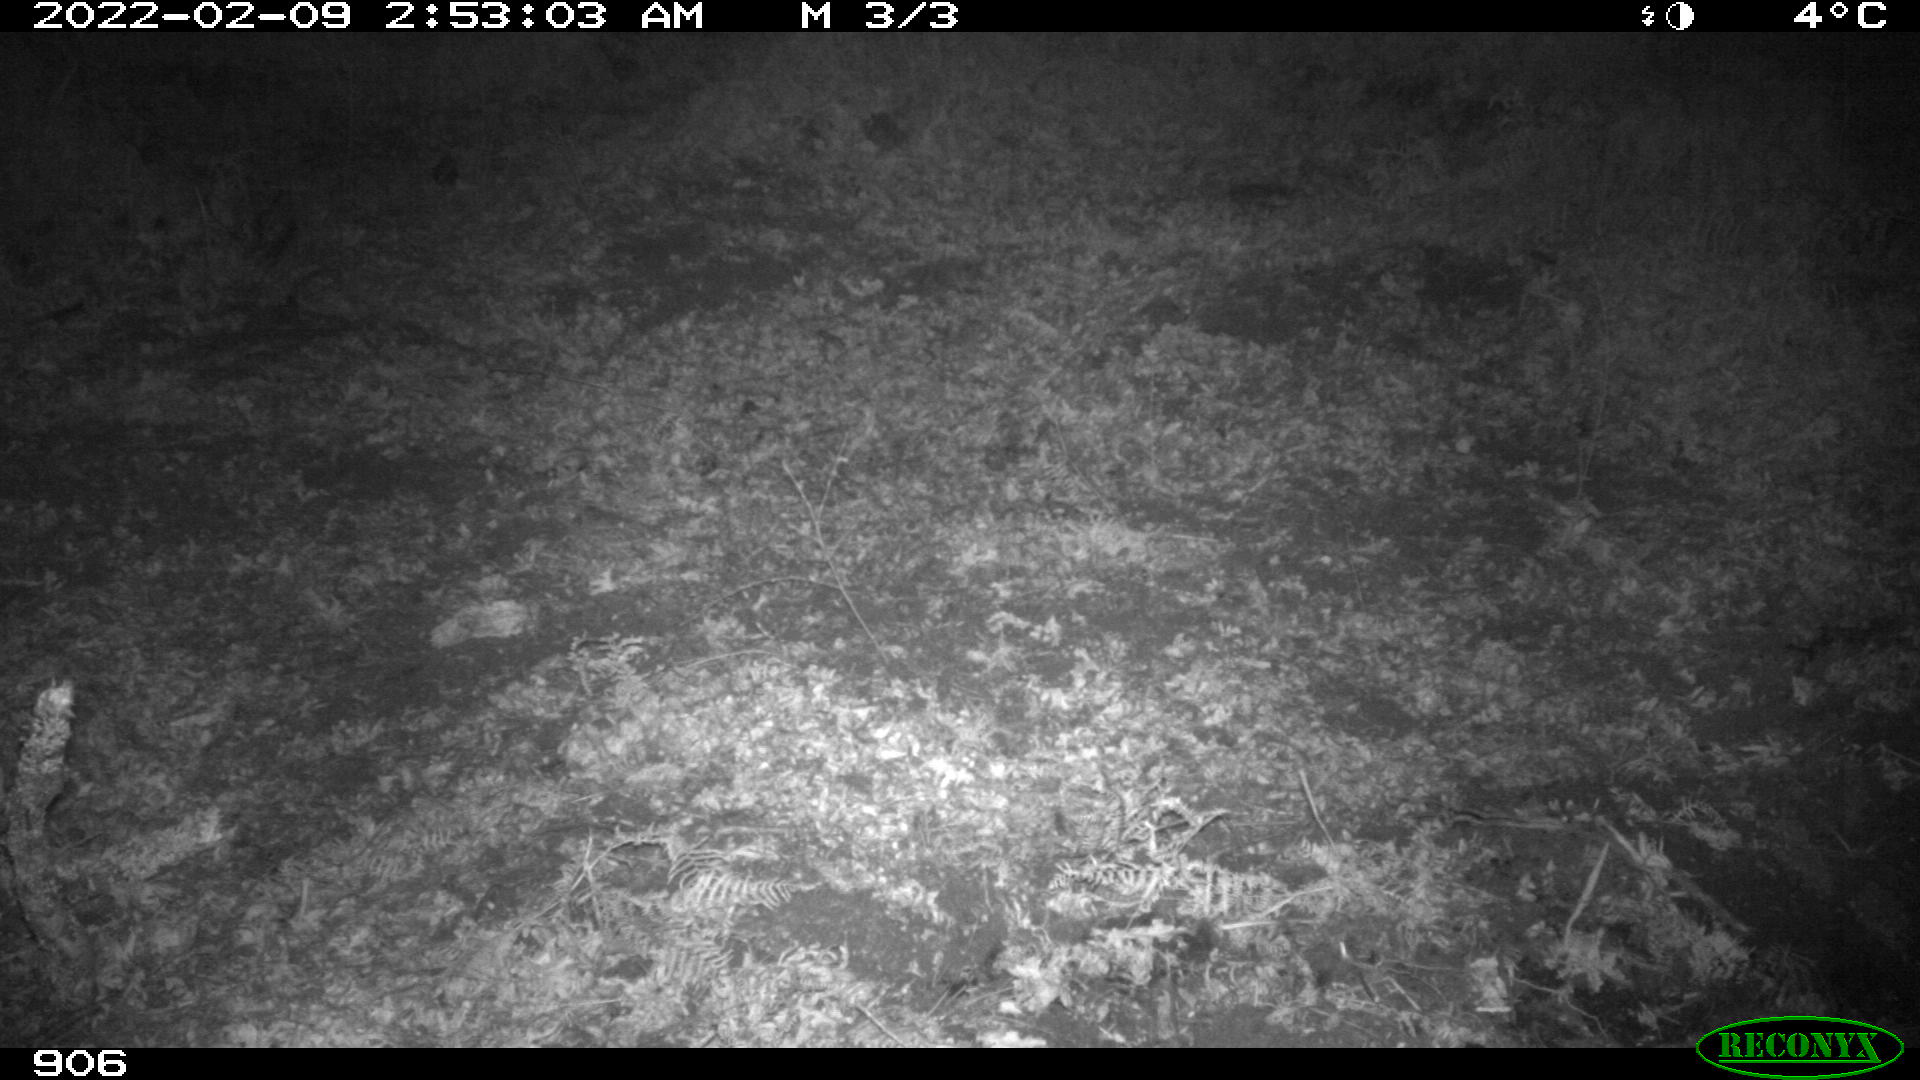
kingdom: Animalia
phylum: Chordata
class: Mammalia
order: Artiodactyla
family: Suidae
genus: Sus
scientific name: Sus scrofa
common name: Wild boar
